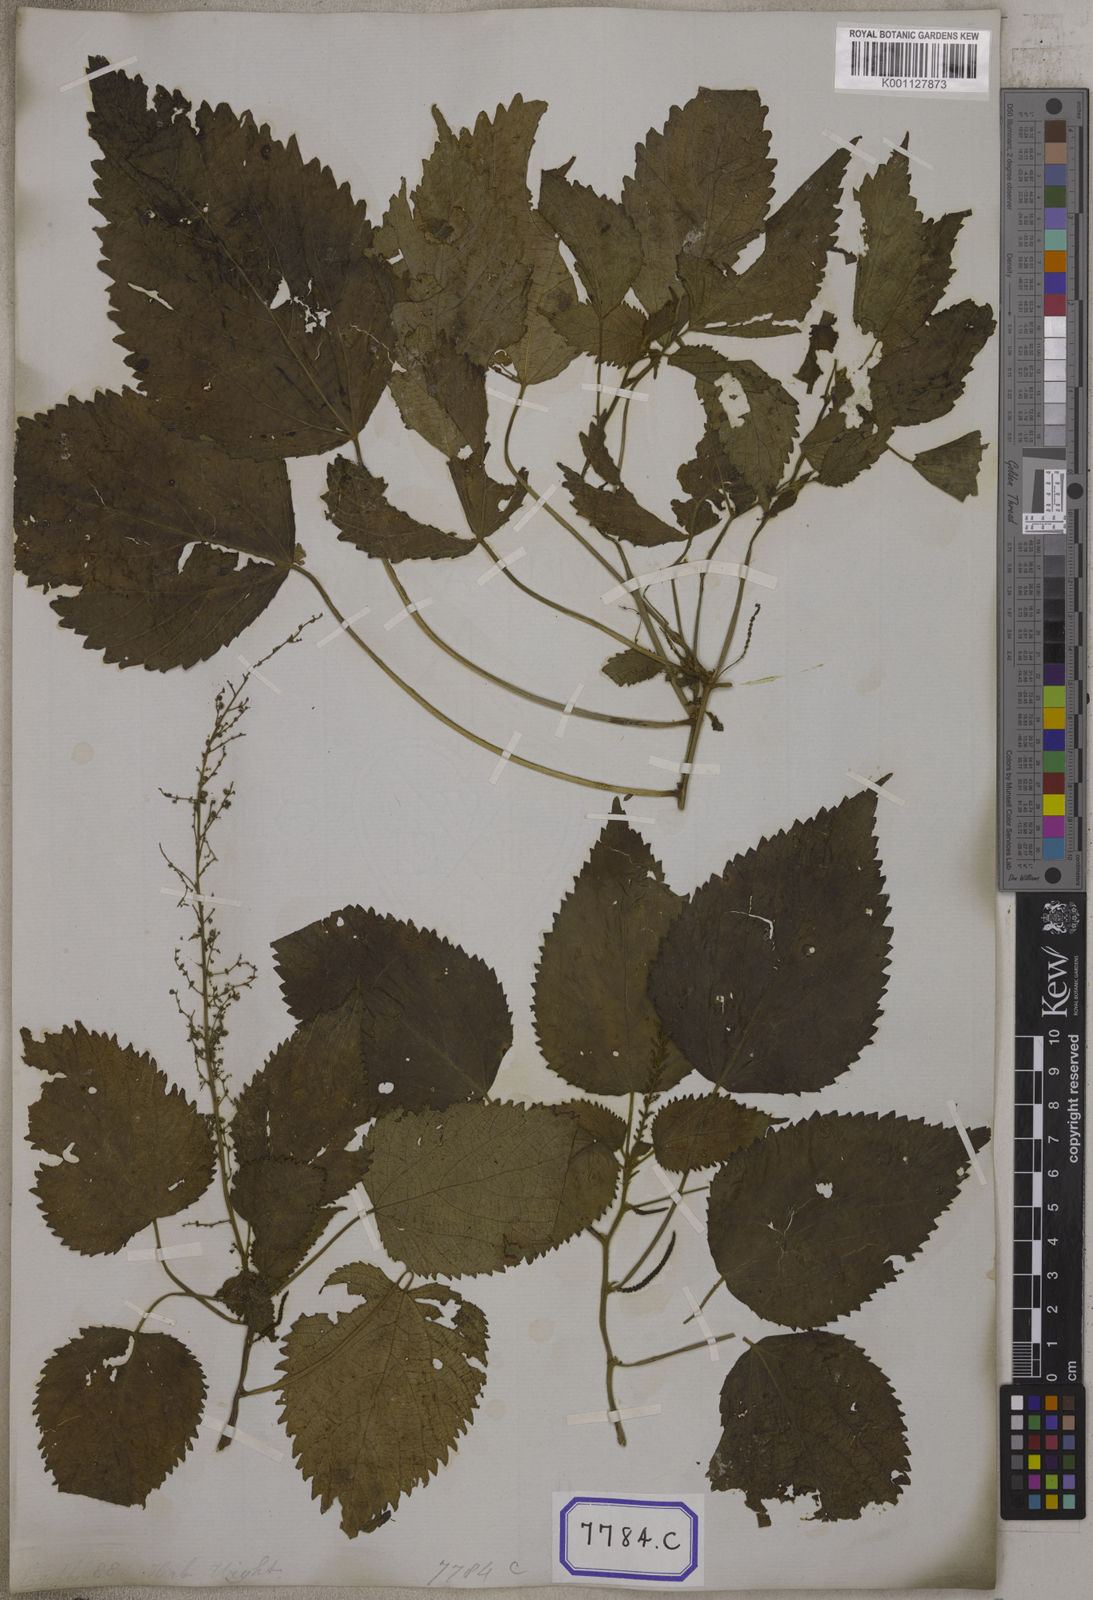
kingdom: Plantae
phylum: Tracheophyta
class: Magnoliopsida
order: Malpighiales
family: Euphorbiaceae
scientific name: Euphorbiaceae
